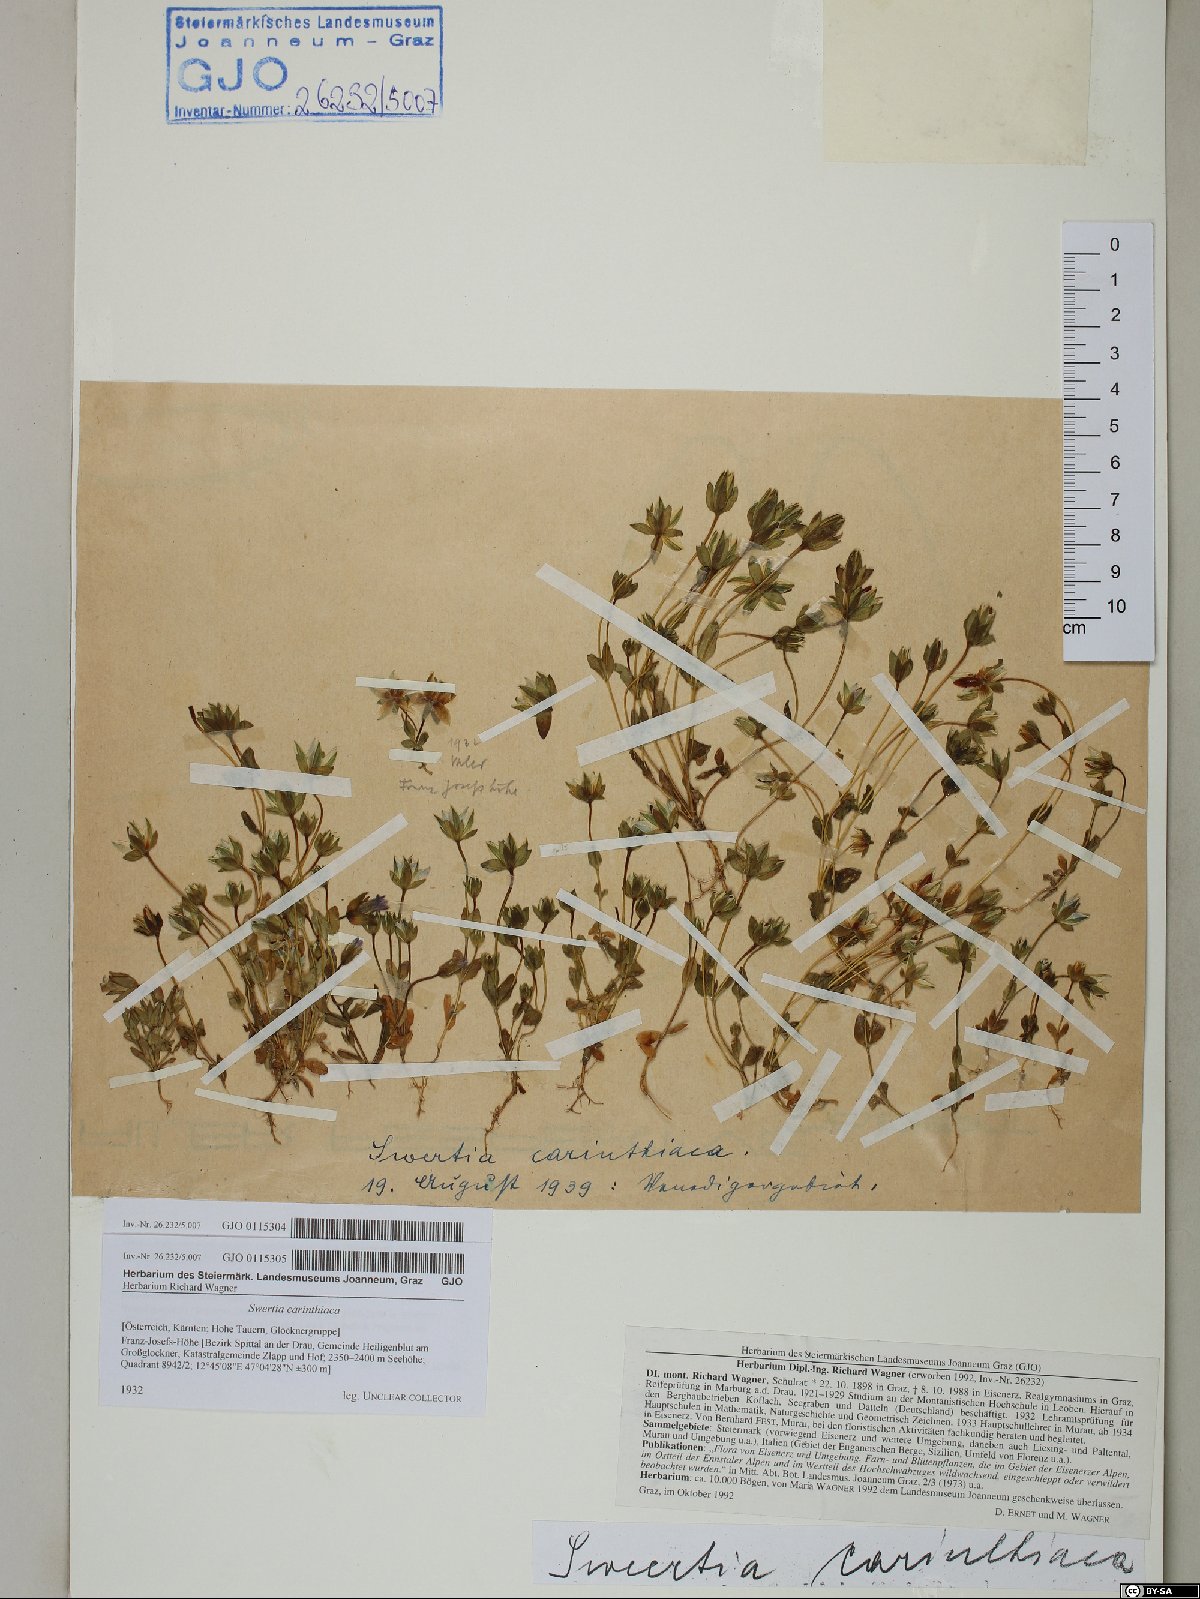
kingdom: Plantae
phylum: Tracheophyta
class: Magnoliopsida
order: Gentianales
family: Gentianaceae
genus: Lomatogonium
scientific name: Lomatogonium carinthiacum
